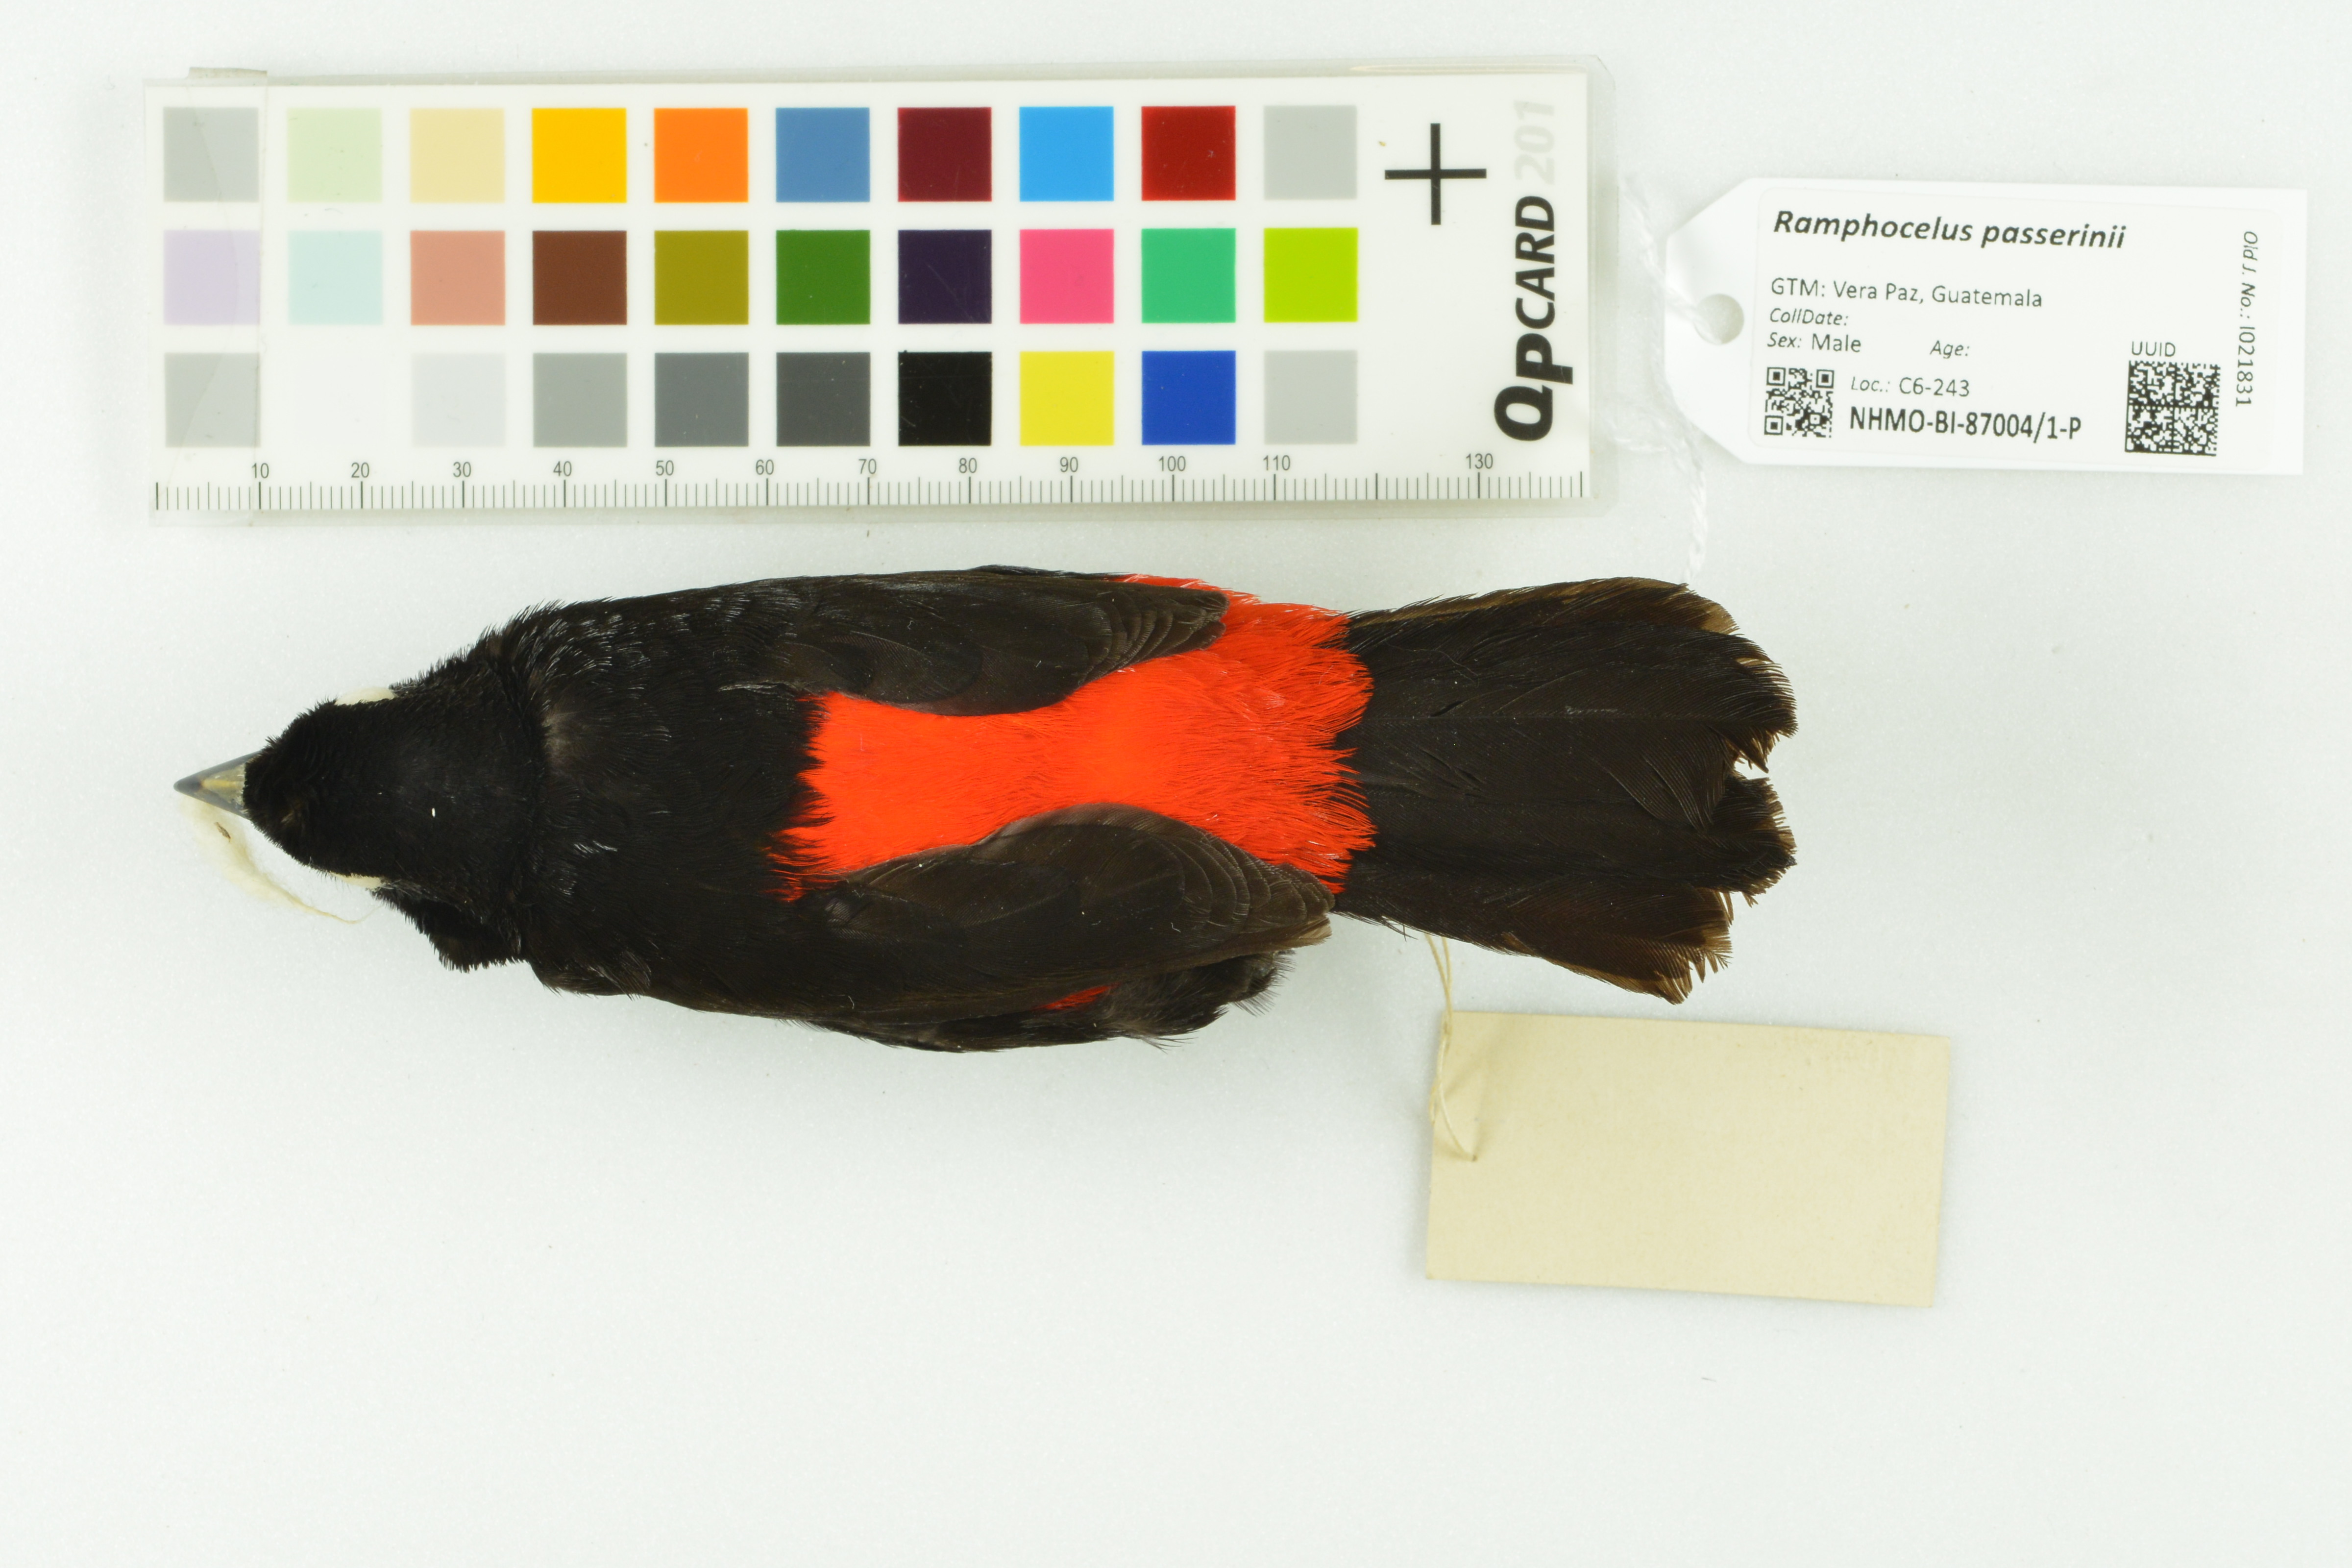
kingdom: Animalia
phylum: Chordata
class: Aves
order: Passeriformes
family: Thraupidae
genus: Ramphocelus
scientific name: Ramphocelus passerinii
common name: Passerini's tanager
